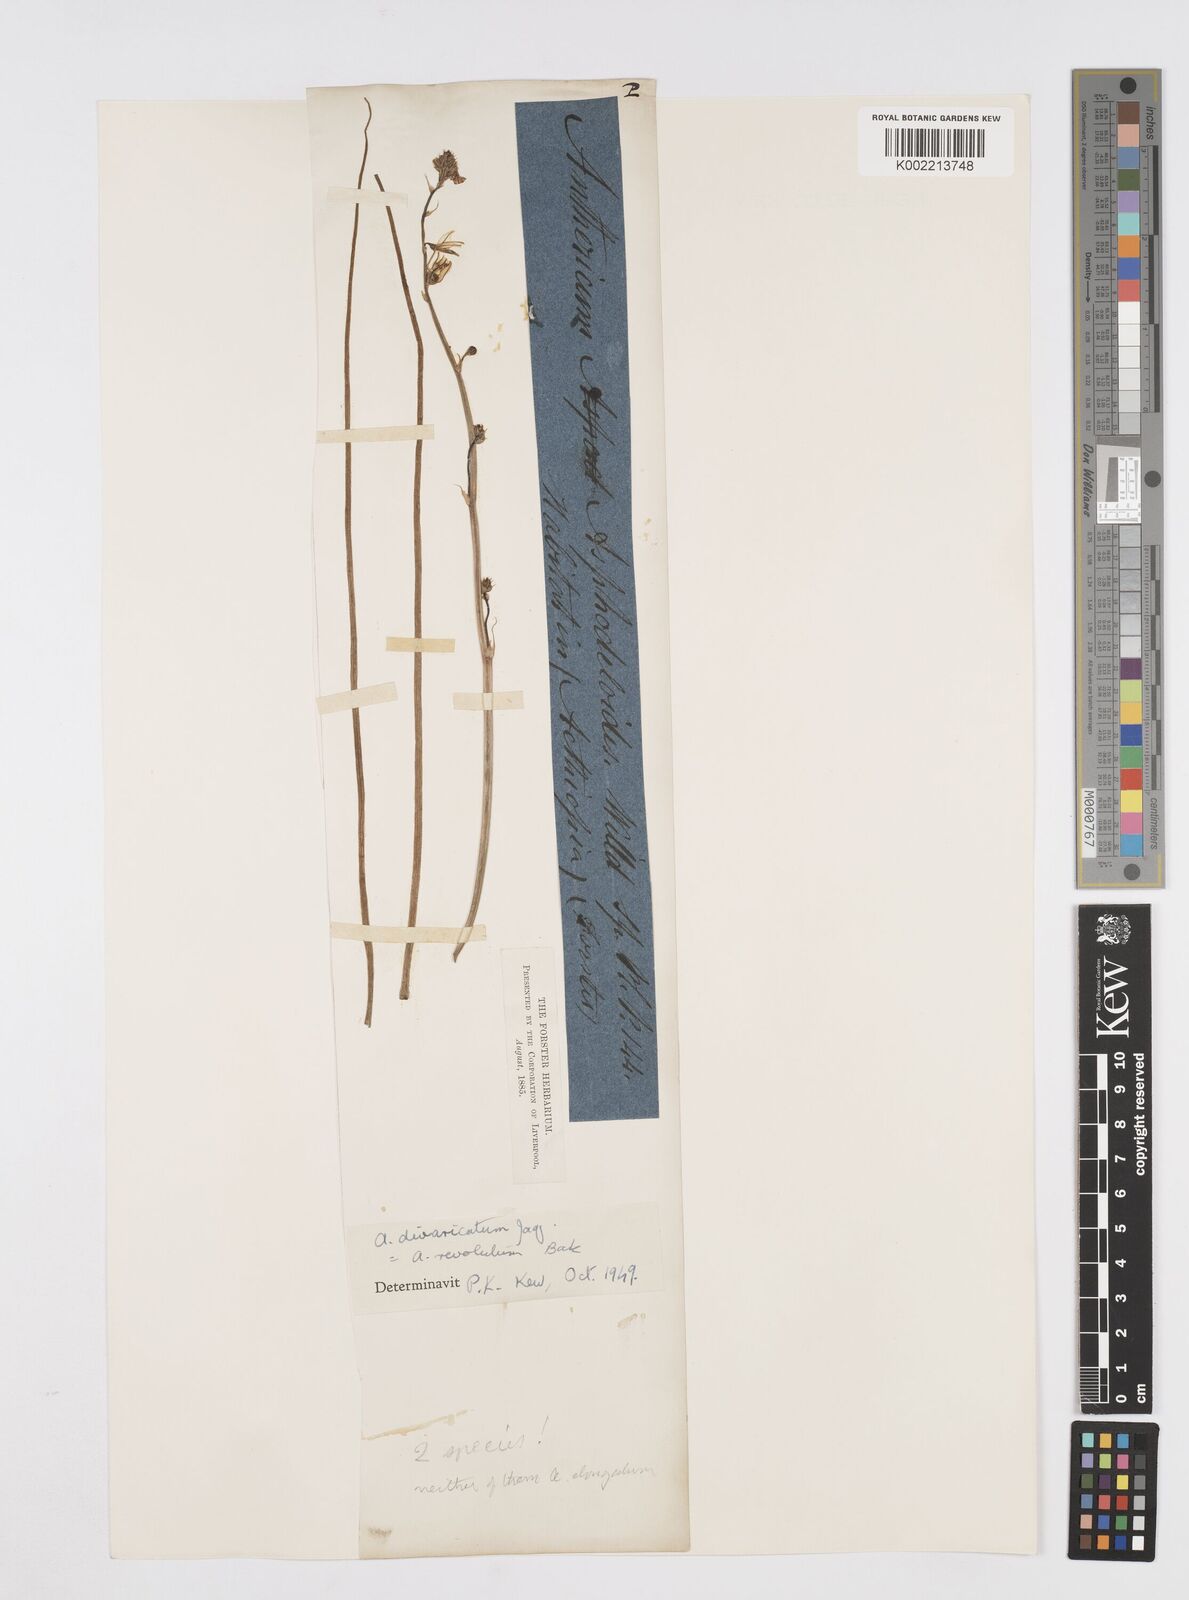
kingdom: Plantae
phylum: Tracheophyta
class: Liliopsida
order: Asparagales
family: Asphodelaceae
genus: Trachyandra
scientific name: Trachyandra divaricata
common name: Dune onionweed
